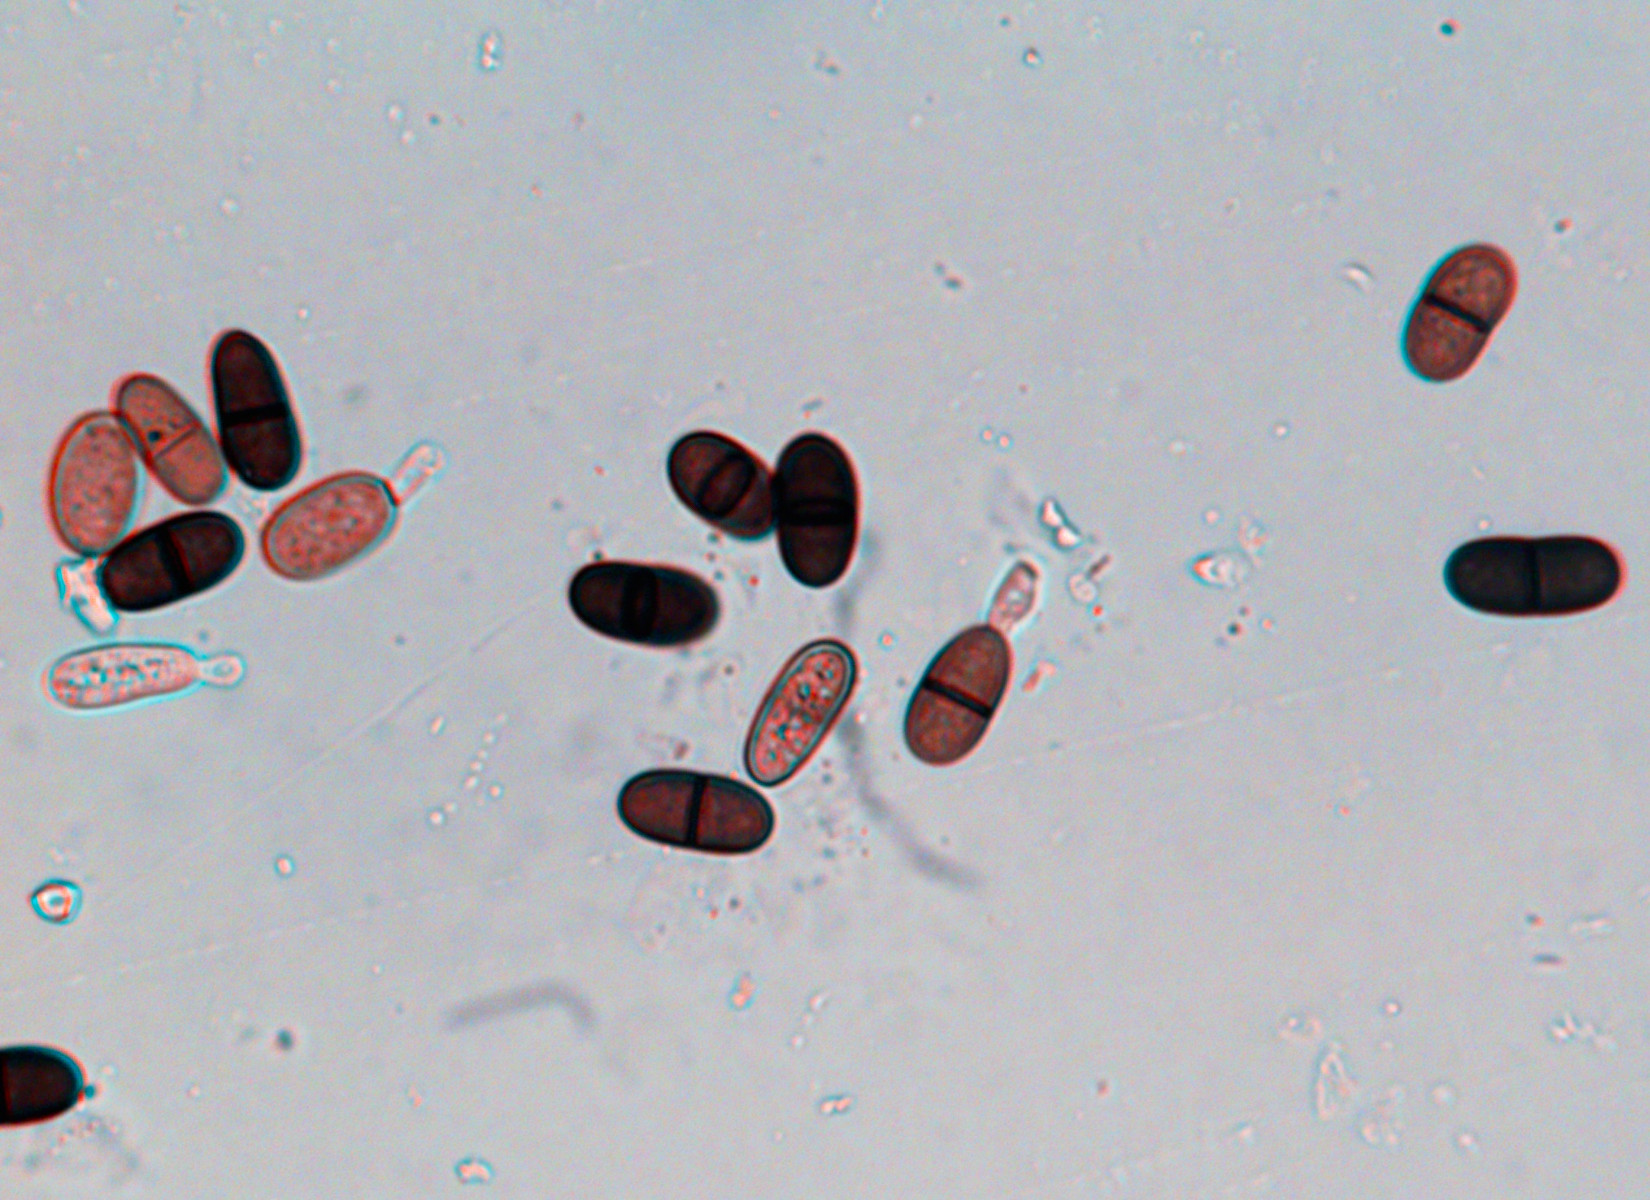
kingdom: Fungi
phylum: Ascomycota
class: Dothideomycetes
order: Botryosphaeriales
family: Botryosphaeriaceae
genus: Diplodia
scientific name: Diplodia
